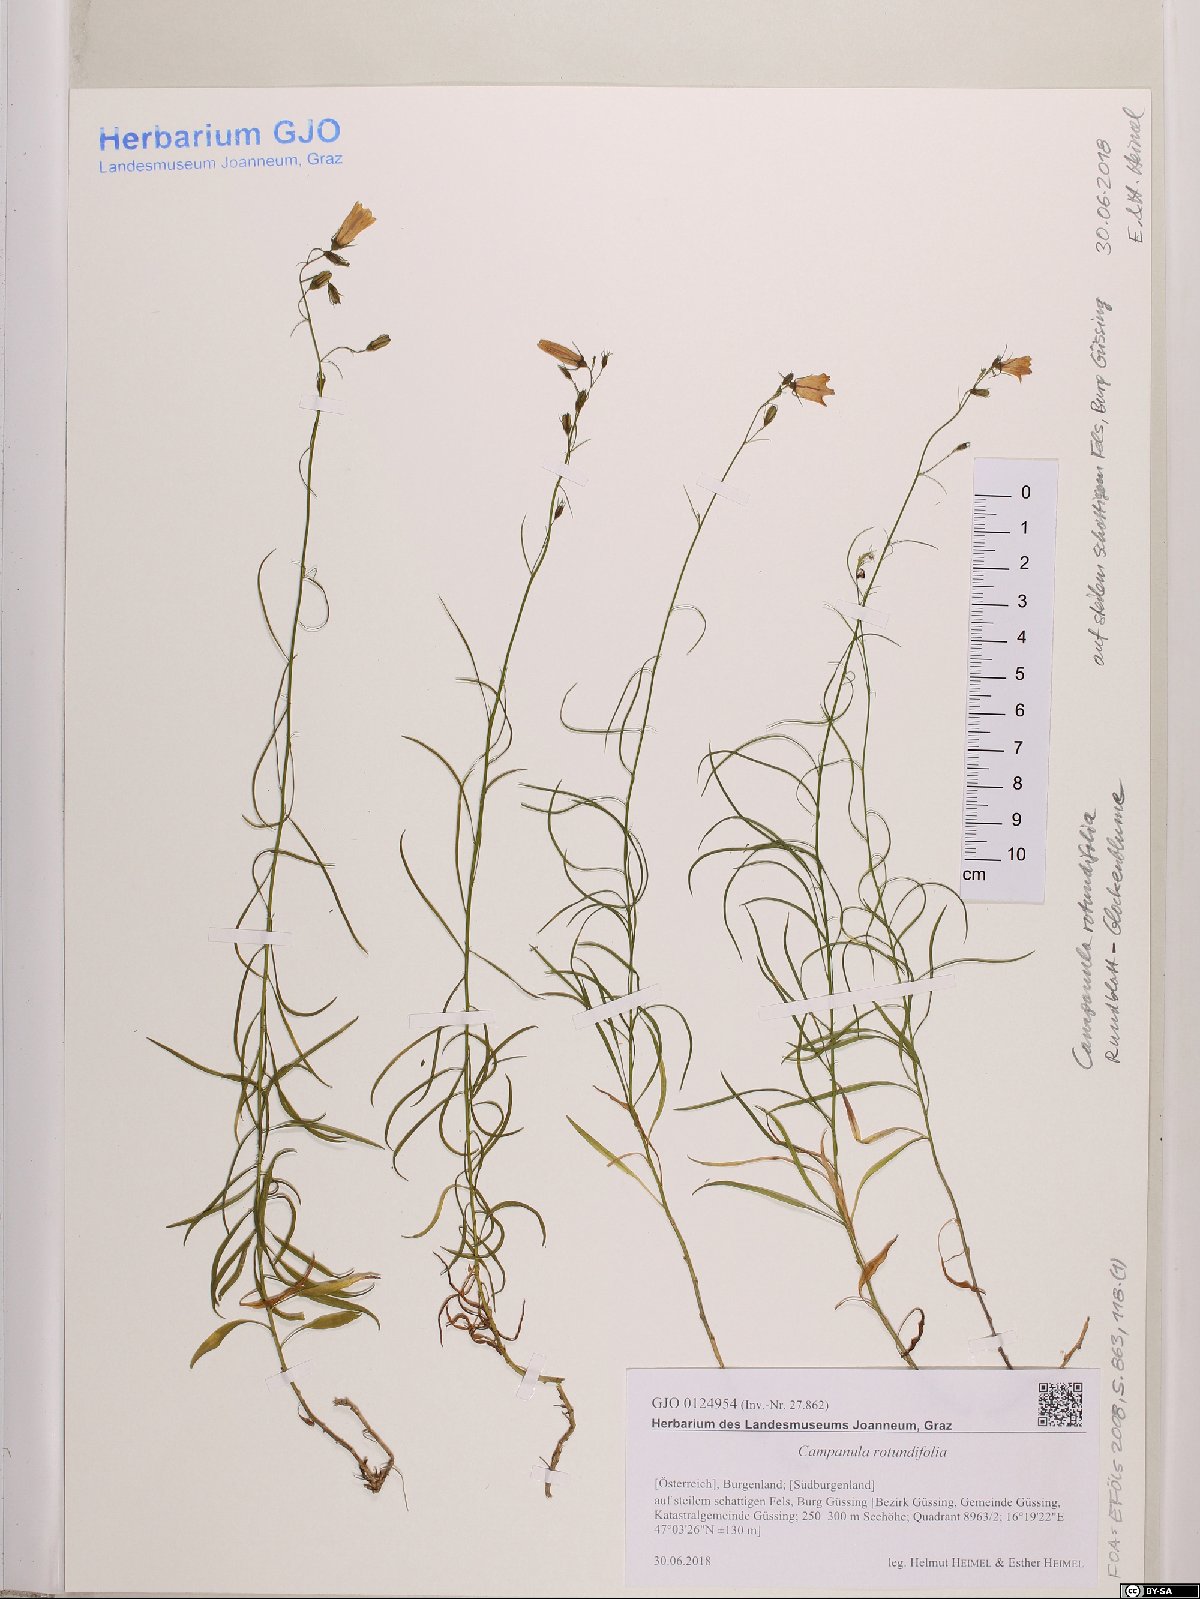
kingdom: Plantae
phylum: Tracheophyta
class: Magnoliopsida
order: Asterales
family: Campanulaceae
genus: Campanula
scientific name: Campanula rotundifolia
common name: Harebell
